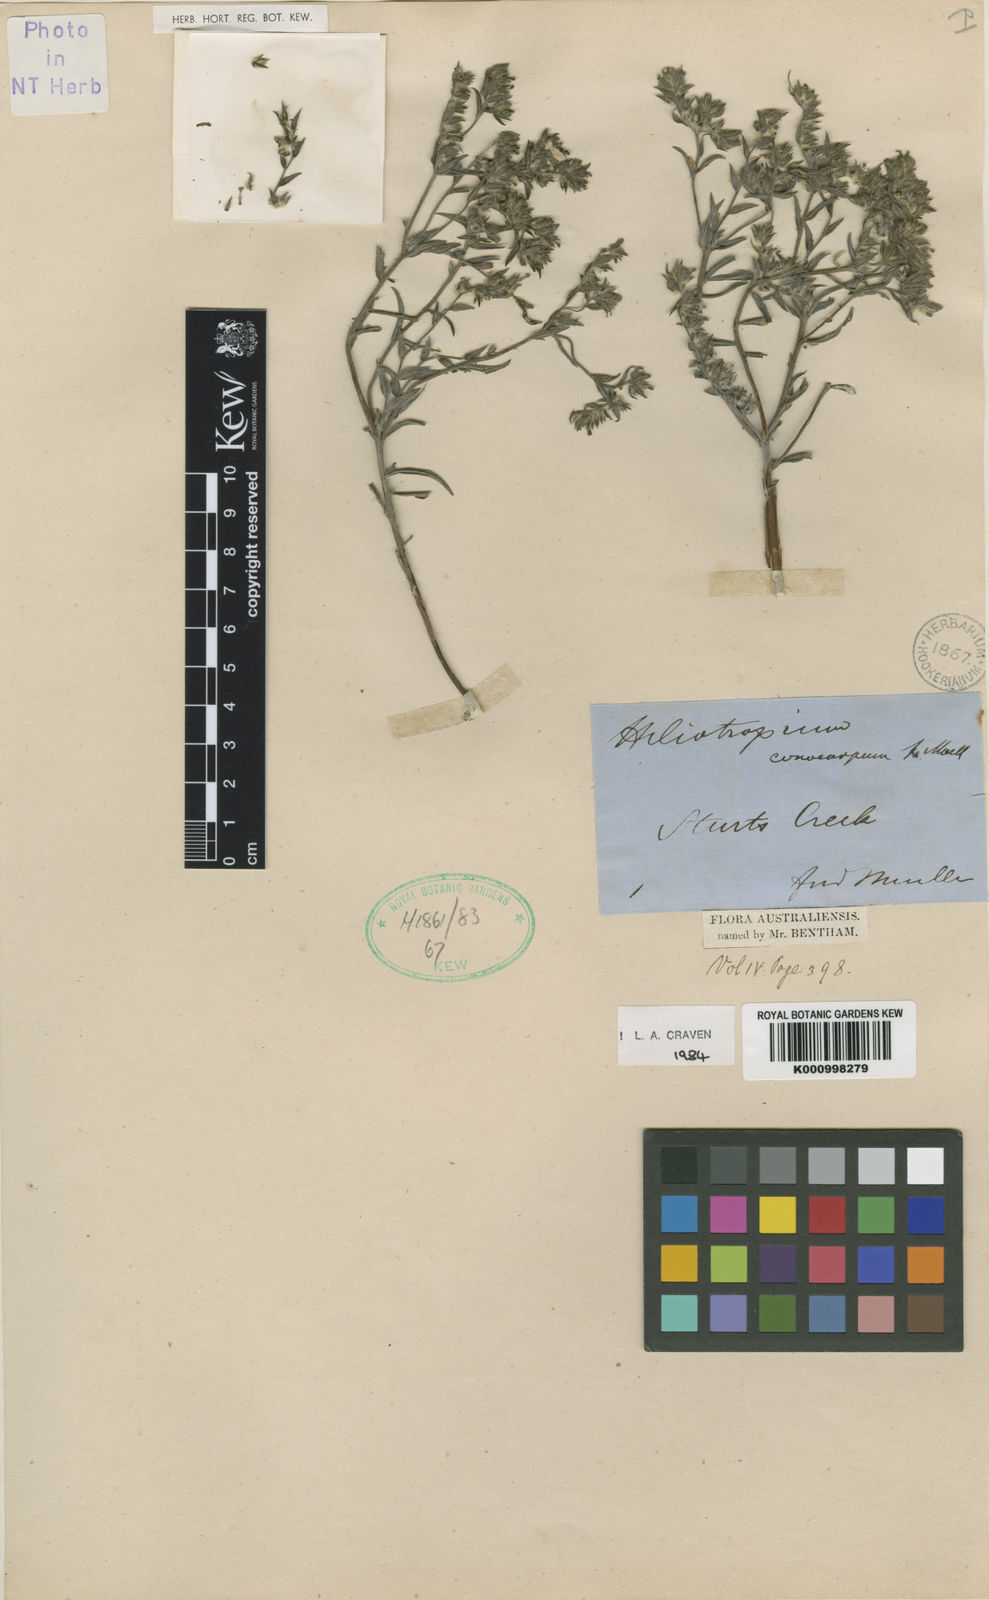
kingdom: Plantae
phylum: Tracheophyta
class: Magnoliopsida
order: Boraginales
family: Heliotropiaceae
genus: Euploca
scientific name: Euploca conocarpa
